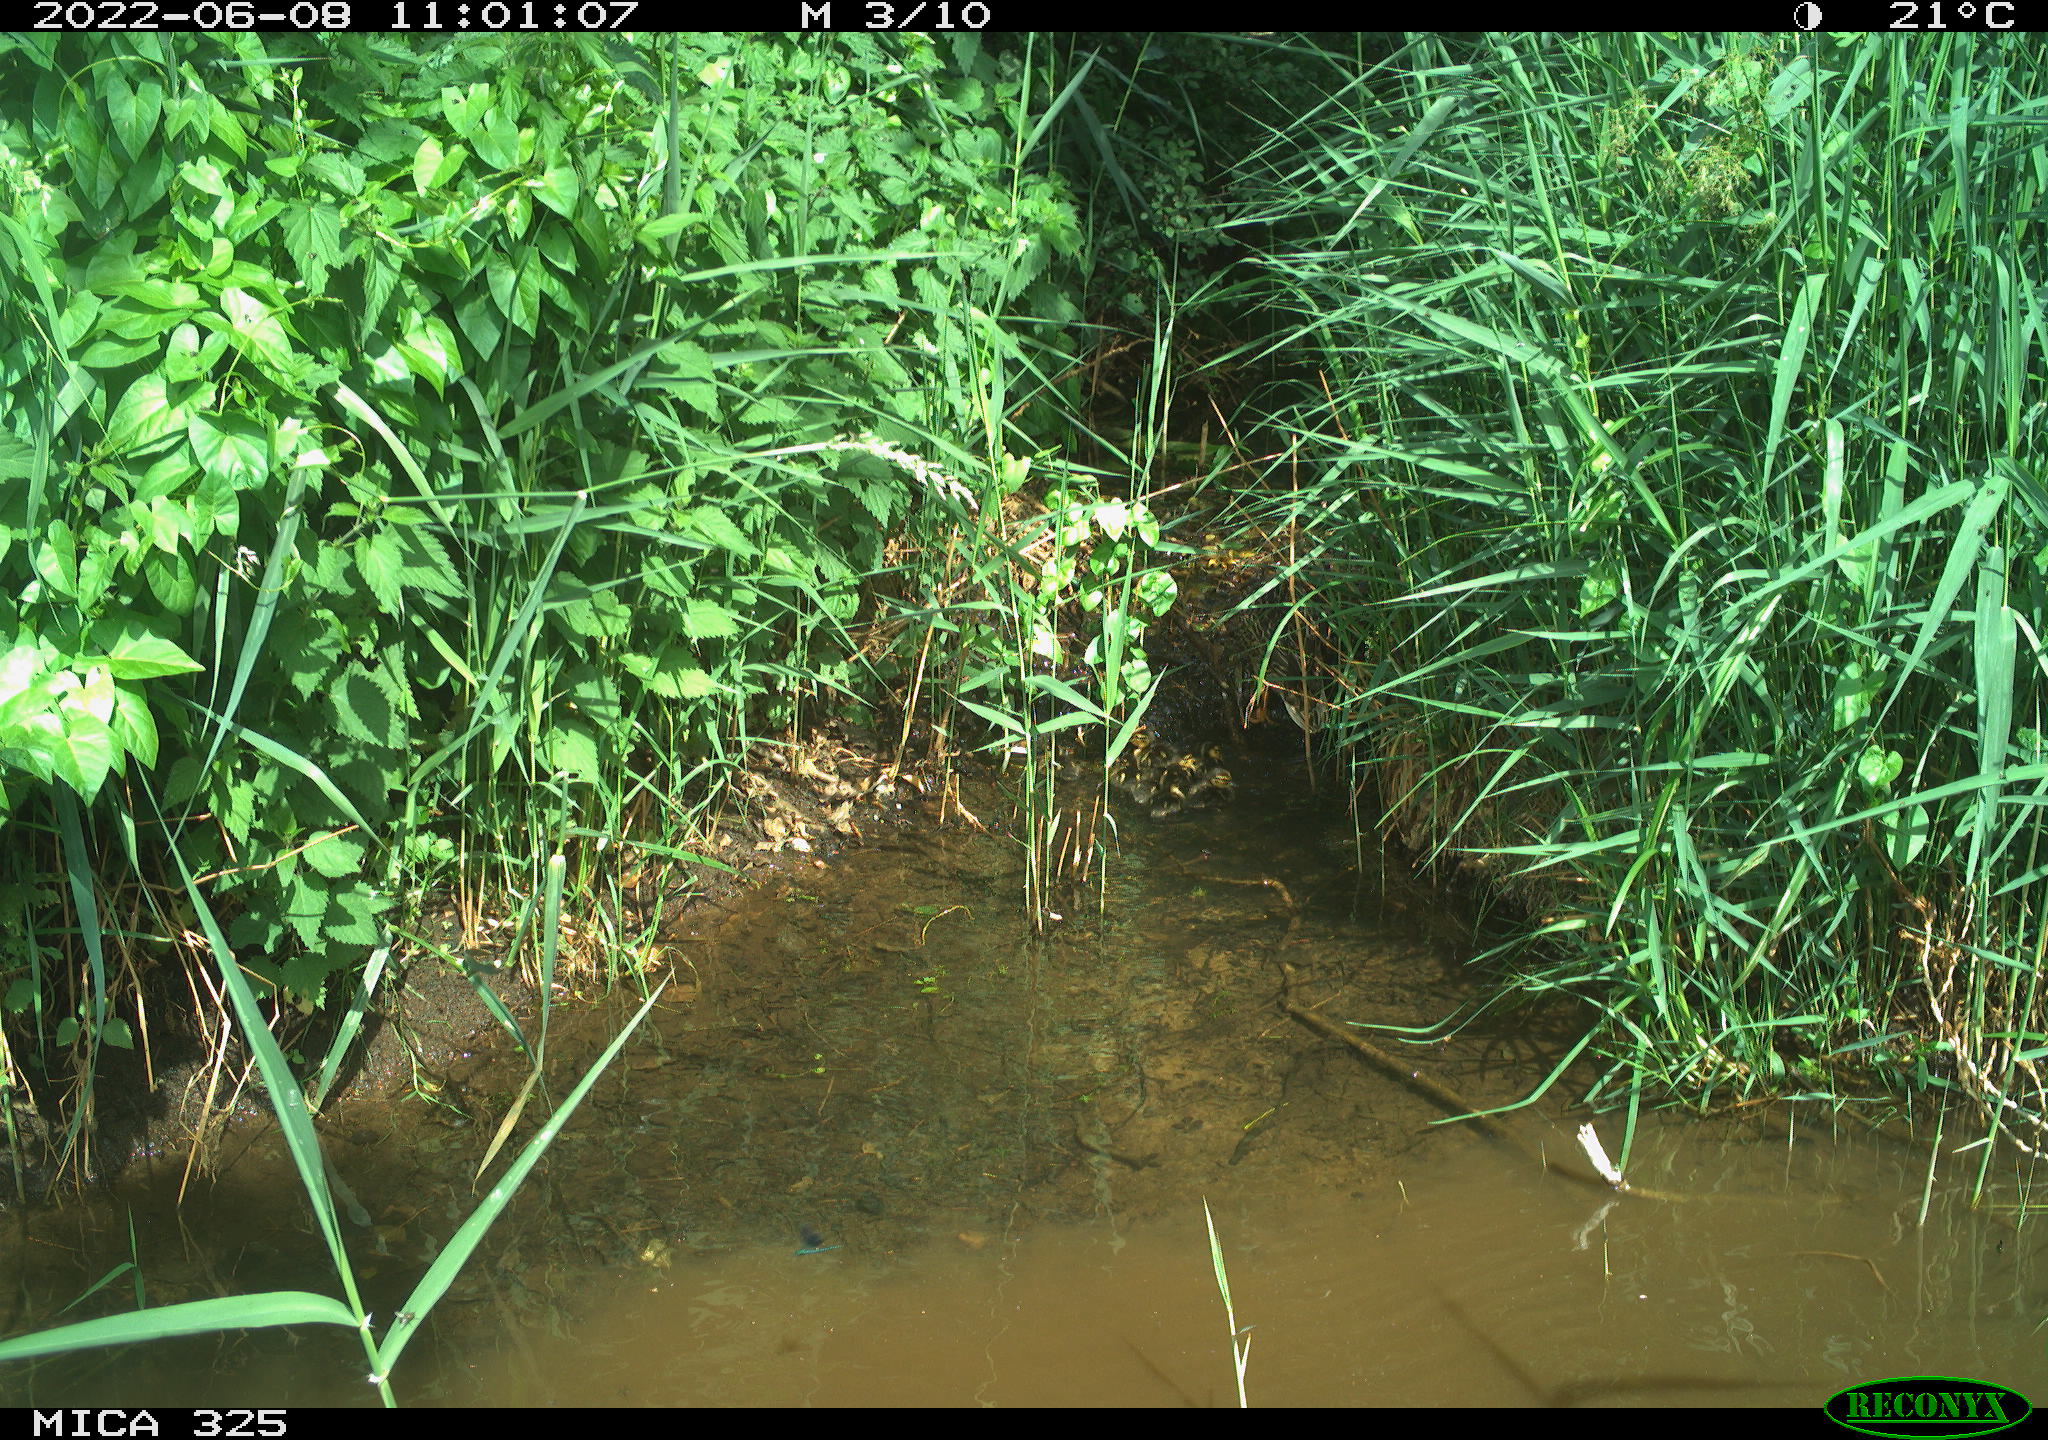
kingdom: Animalia
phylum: Chordata
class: Aves
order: Anseriformes
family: Anatidae
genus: Anas
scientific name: Anas platyrhynchos
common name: Mallard
